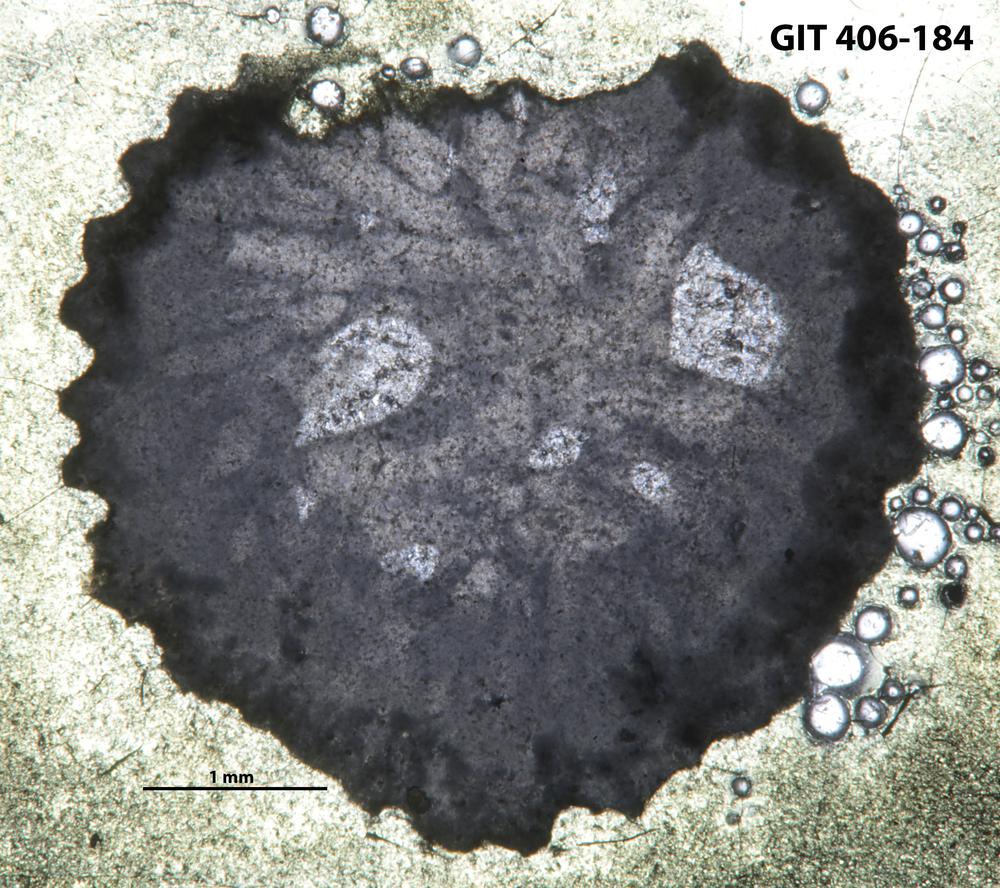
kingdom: Animalia
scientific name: Animalia
